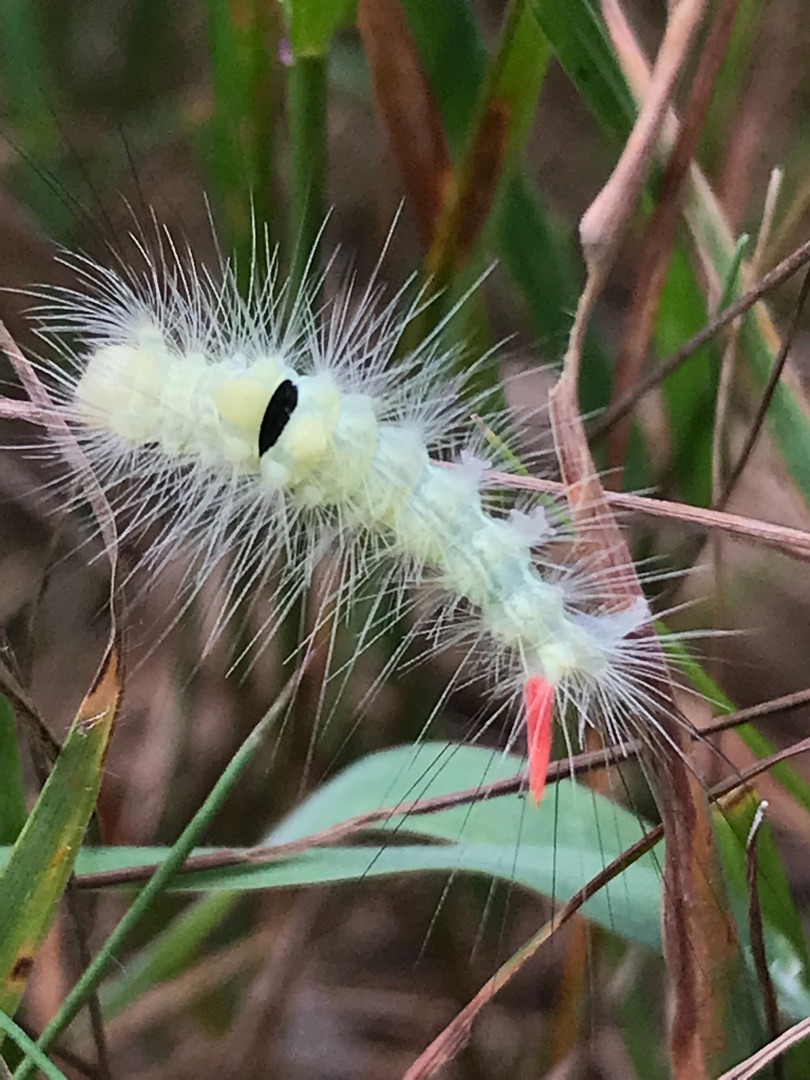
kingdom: Animalia
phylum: Arthropoda
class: Insecta
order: Lepidoptera
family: Erebidae
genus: Calliteara
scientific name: Calliteara pudibunda
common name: Bøgenonne
